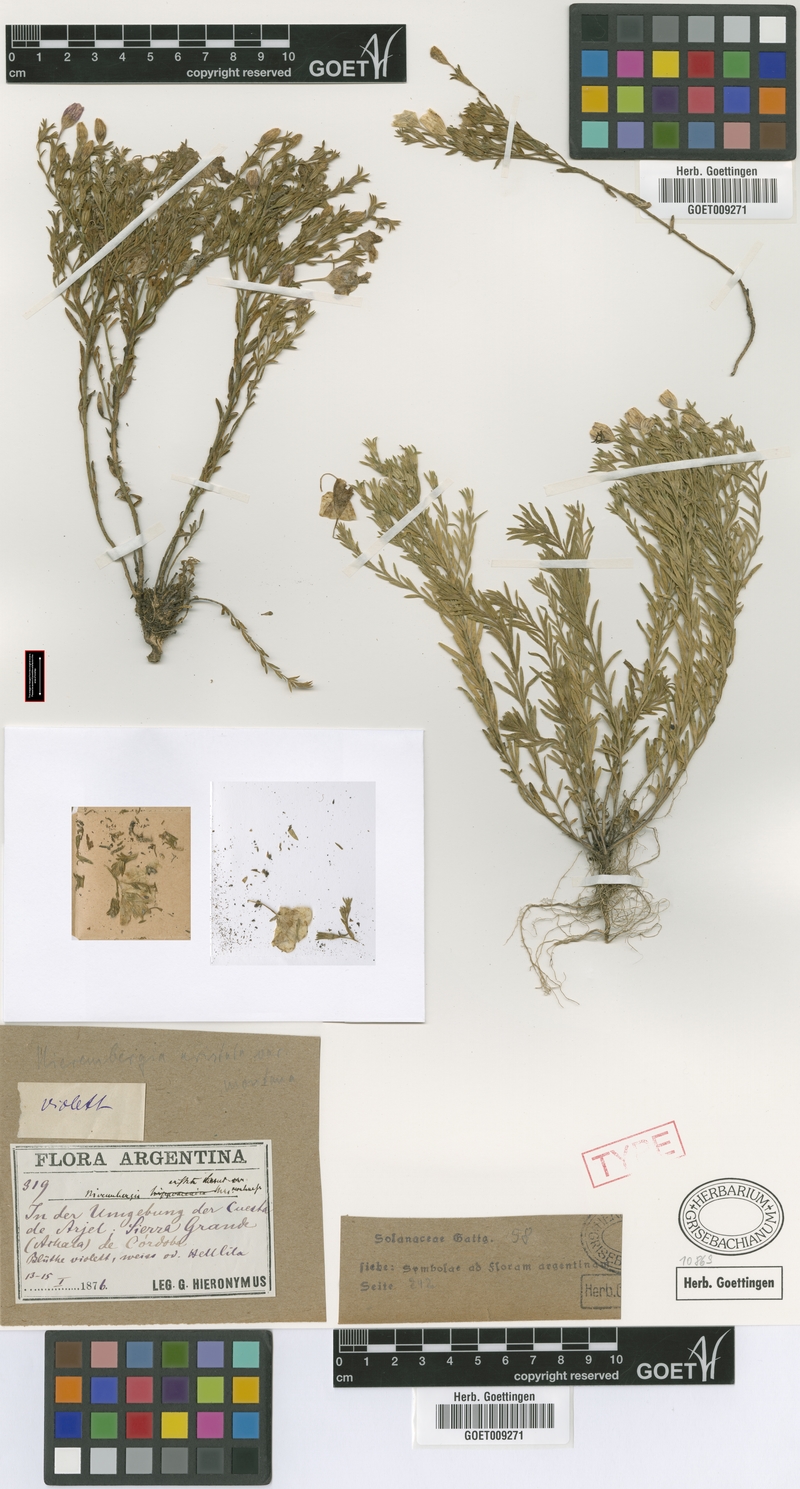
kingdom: Plantae
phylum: Tracheophyta
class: Magnoliopsida
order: Solanales
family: Solanaceae
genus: Nierembergia
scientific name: Nierembergia linariifolia
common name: Dwarf cupflower
